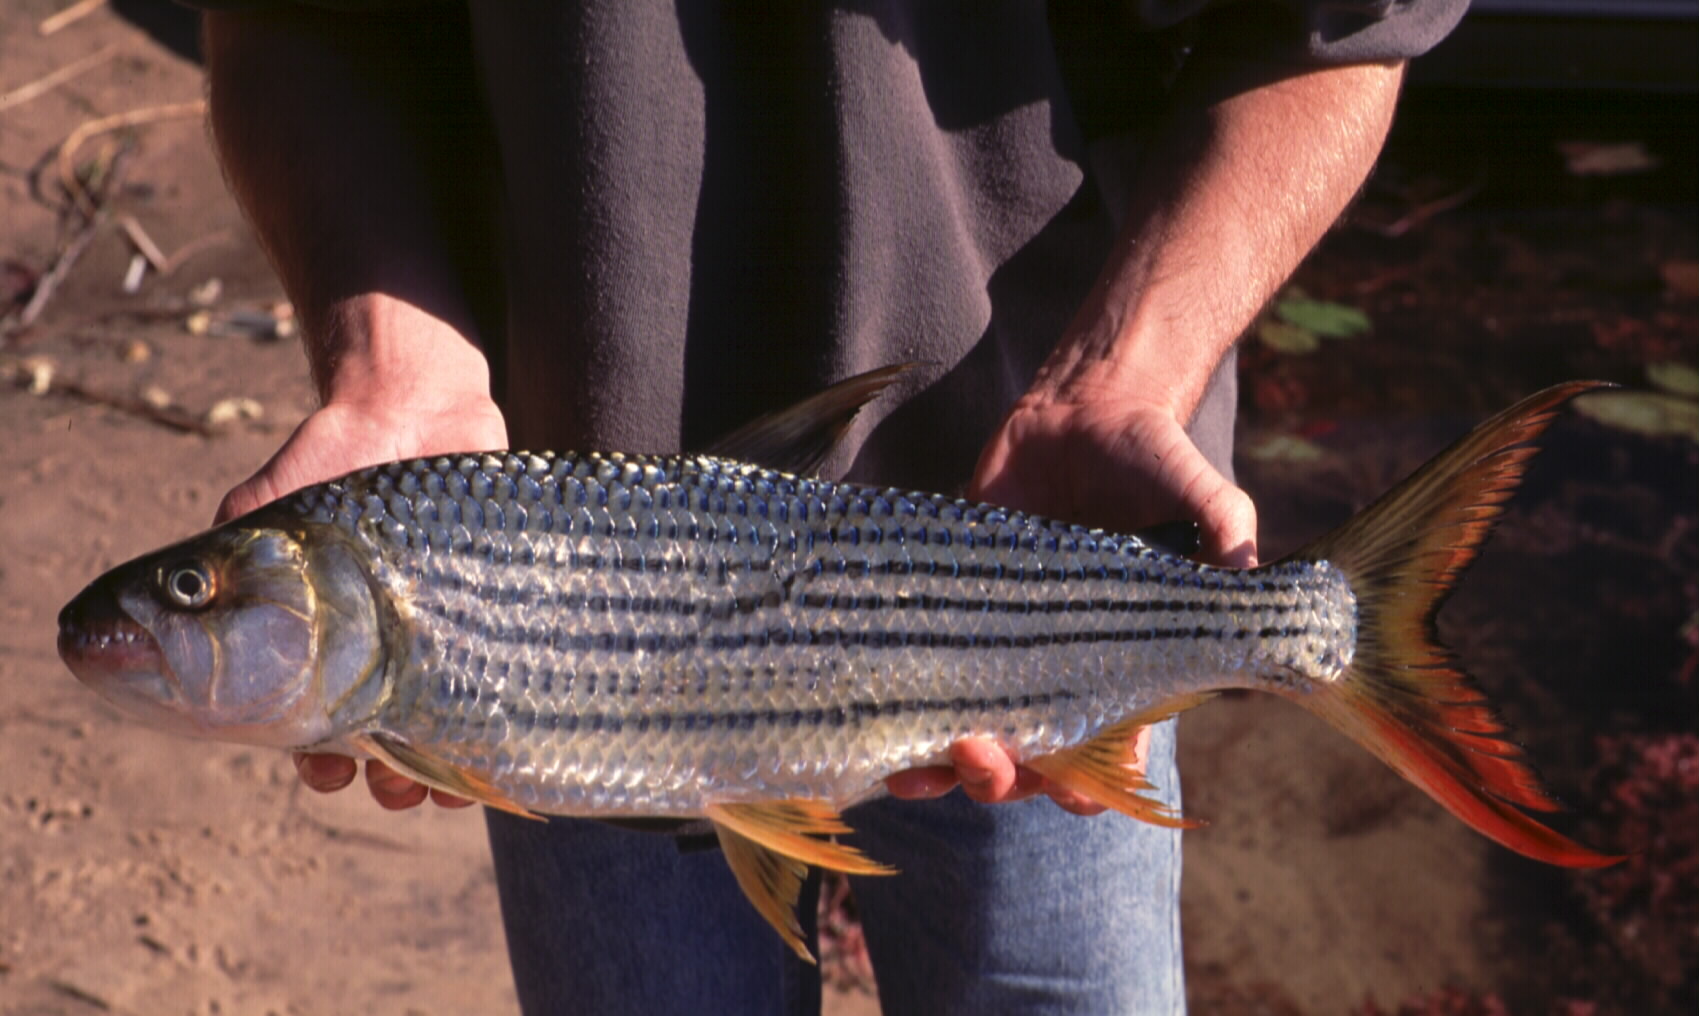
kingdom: Animalia
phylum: Chordata
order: Characiformes
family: Alestidae
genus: Hydrocynus
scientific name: Hydrocynus vittatus
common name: Tigerfish
